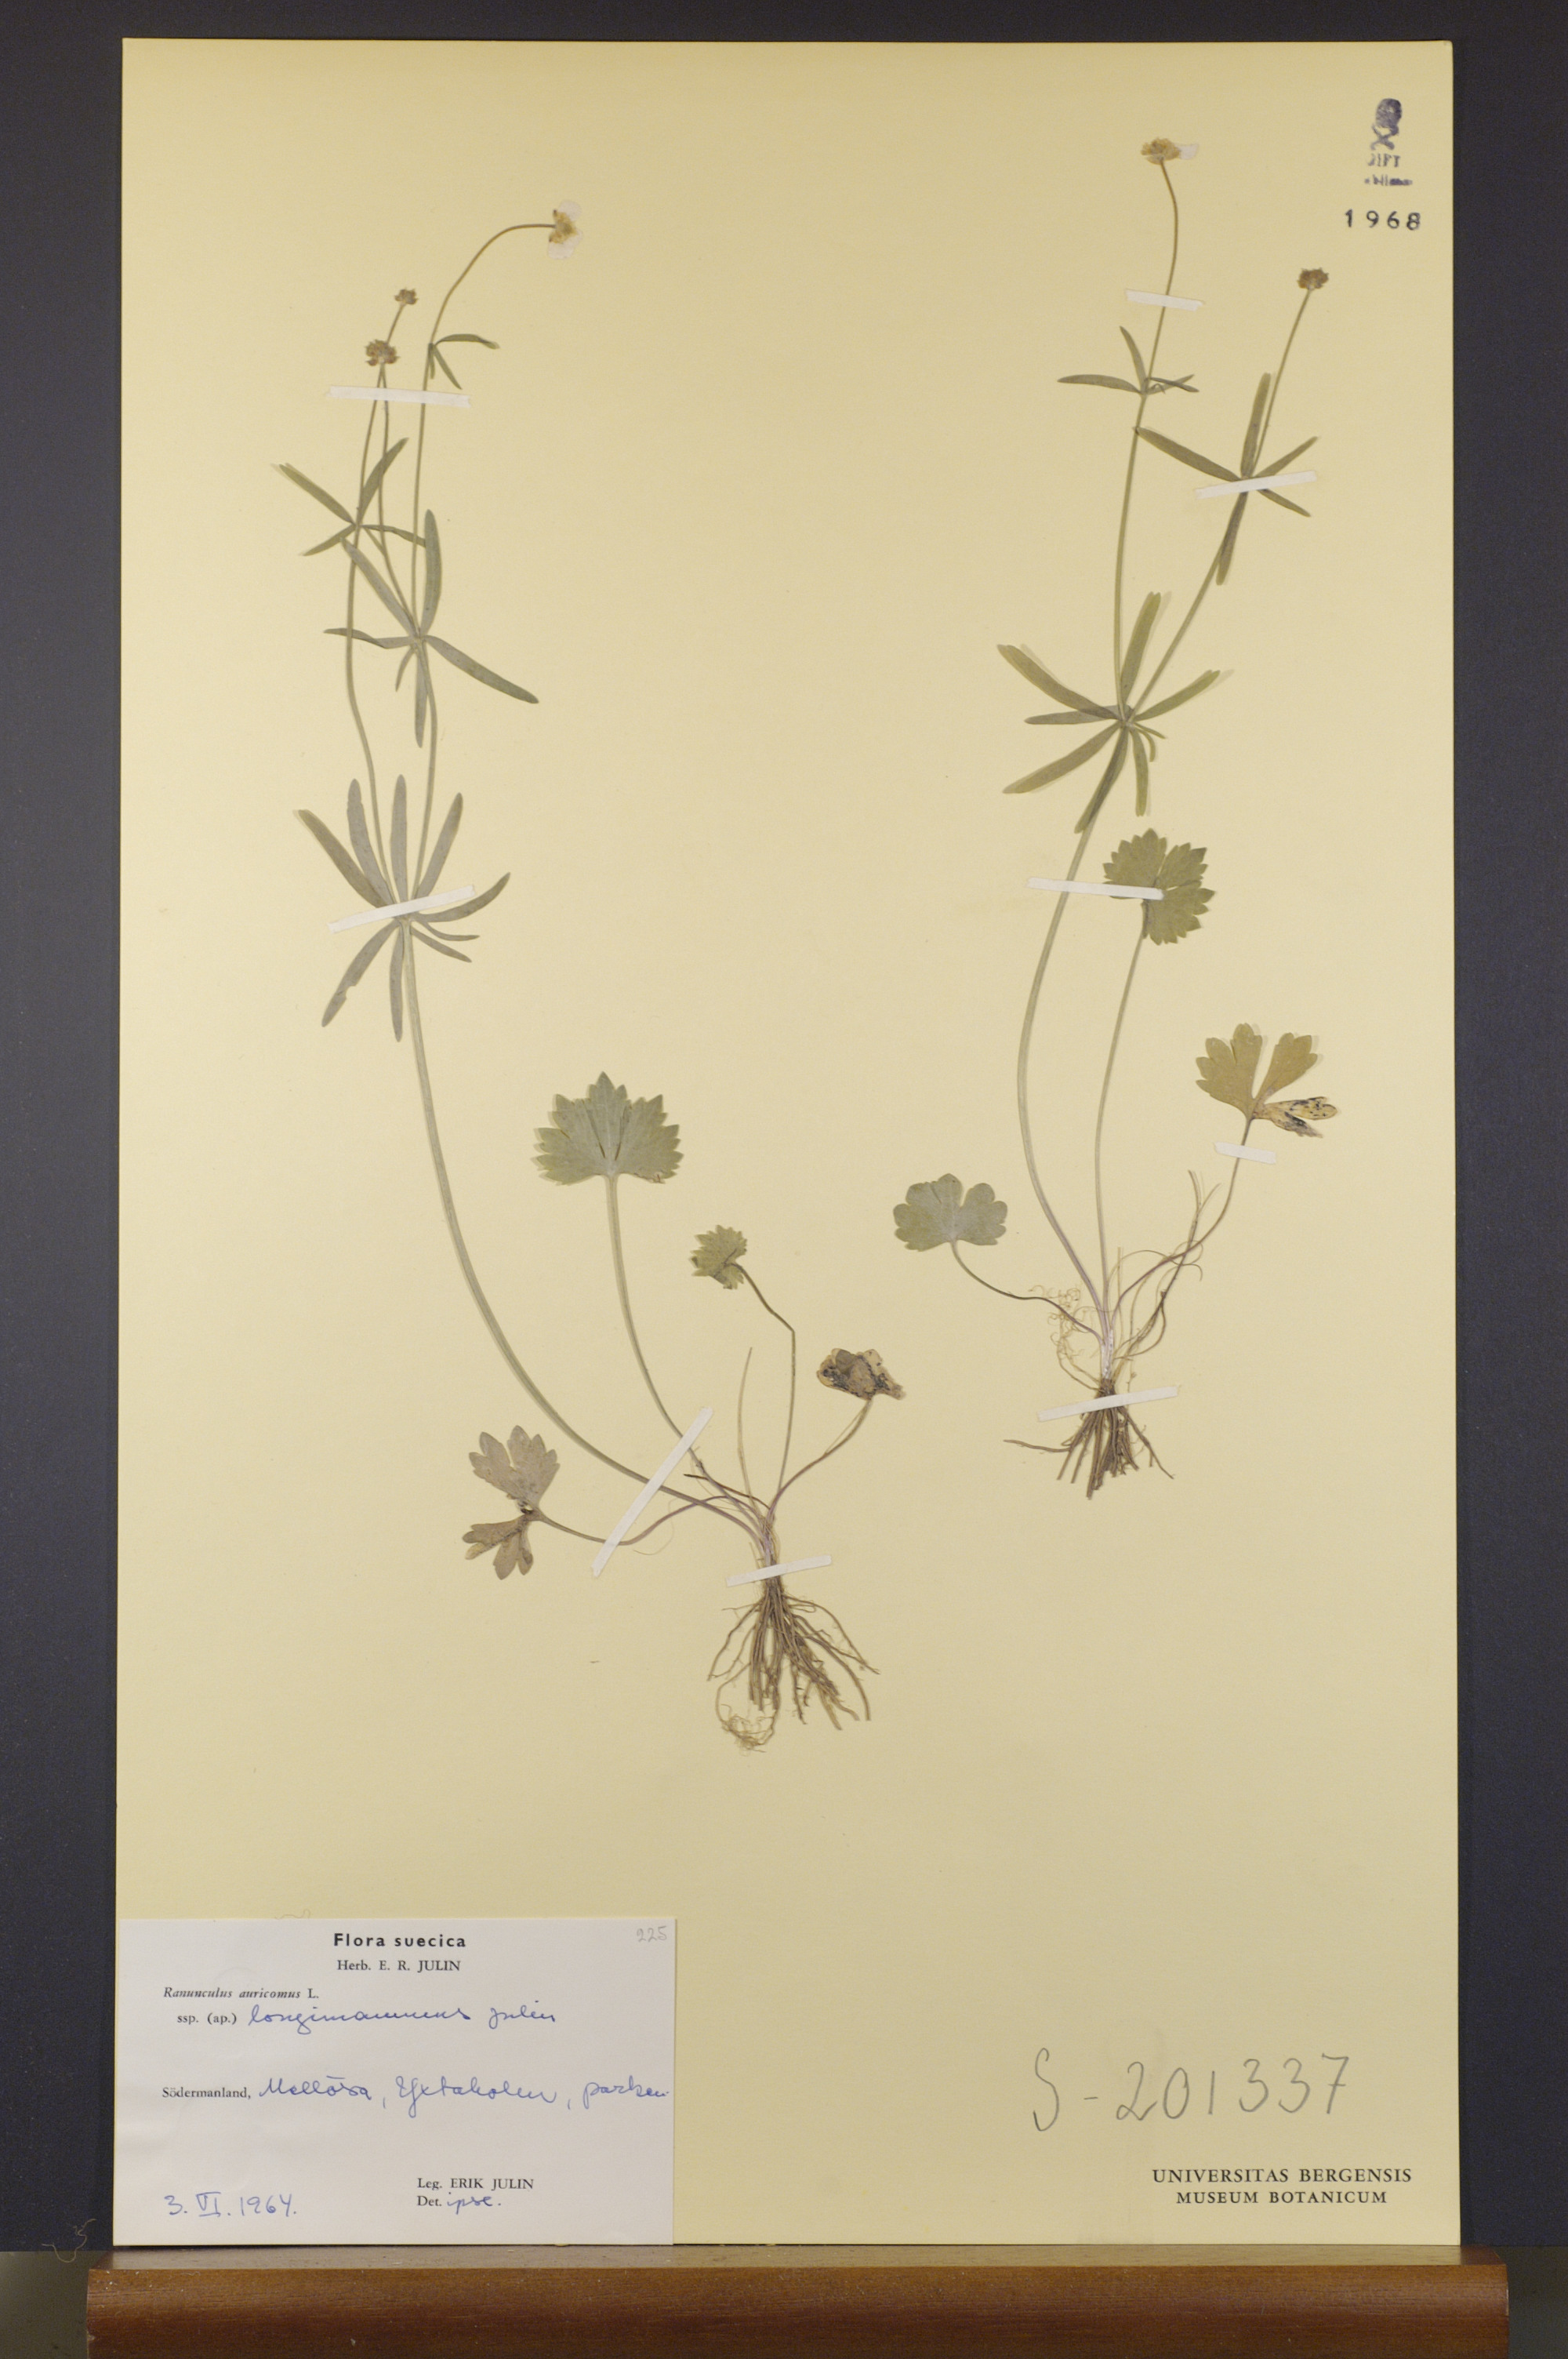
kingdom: Plantae
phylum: Tracheophyta
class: Magnoliopsida
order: Ranunculales
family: Ranunculaceae
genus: Ranunculus
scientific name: Ranunculus longimammus
